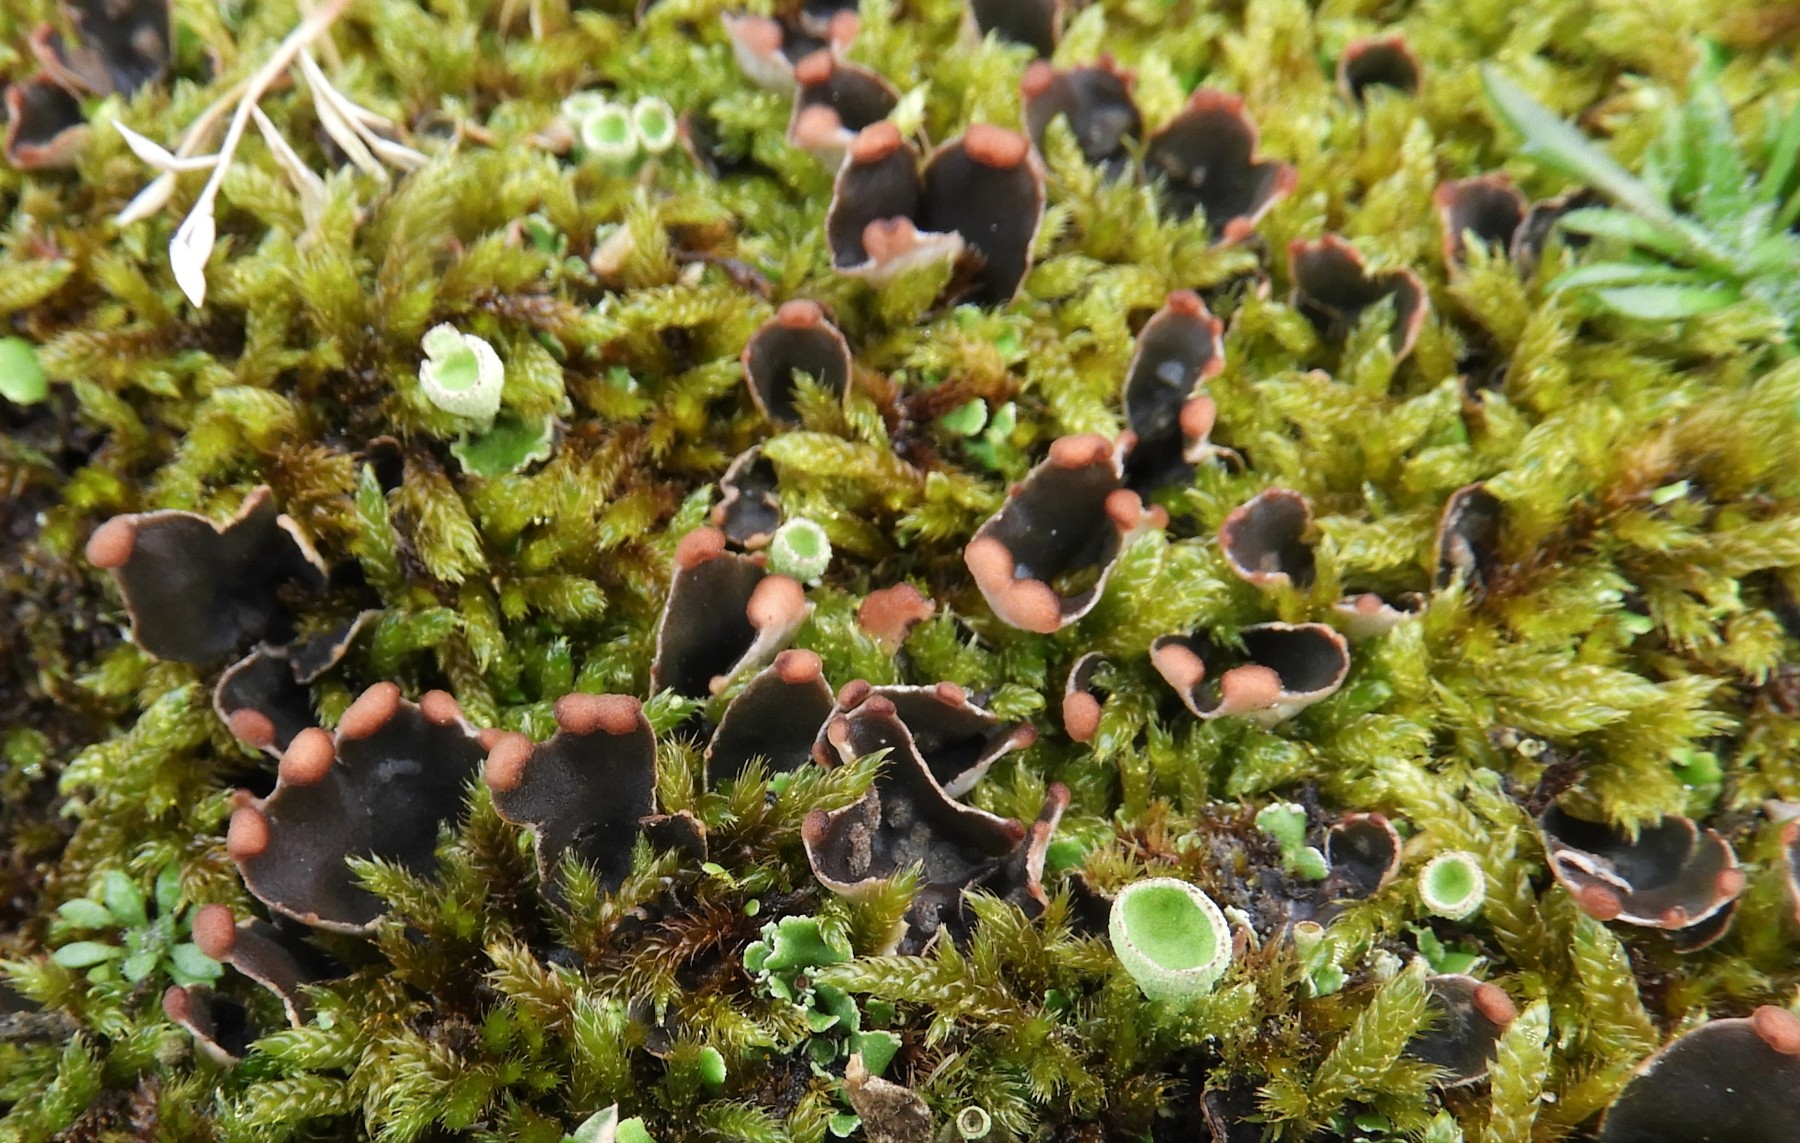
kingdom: Fungi
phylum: Ascomycota
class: Lecanoromycetes
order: Peltigerales
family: Peltigeraceae
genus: Peltigera
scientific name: Peltigera didactyla
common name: liden skjoldlav
